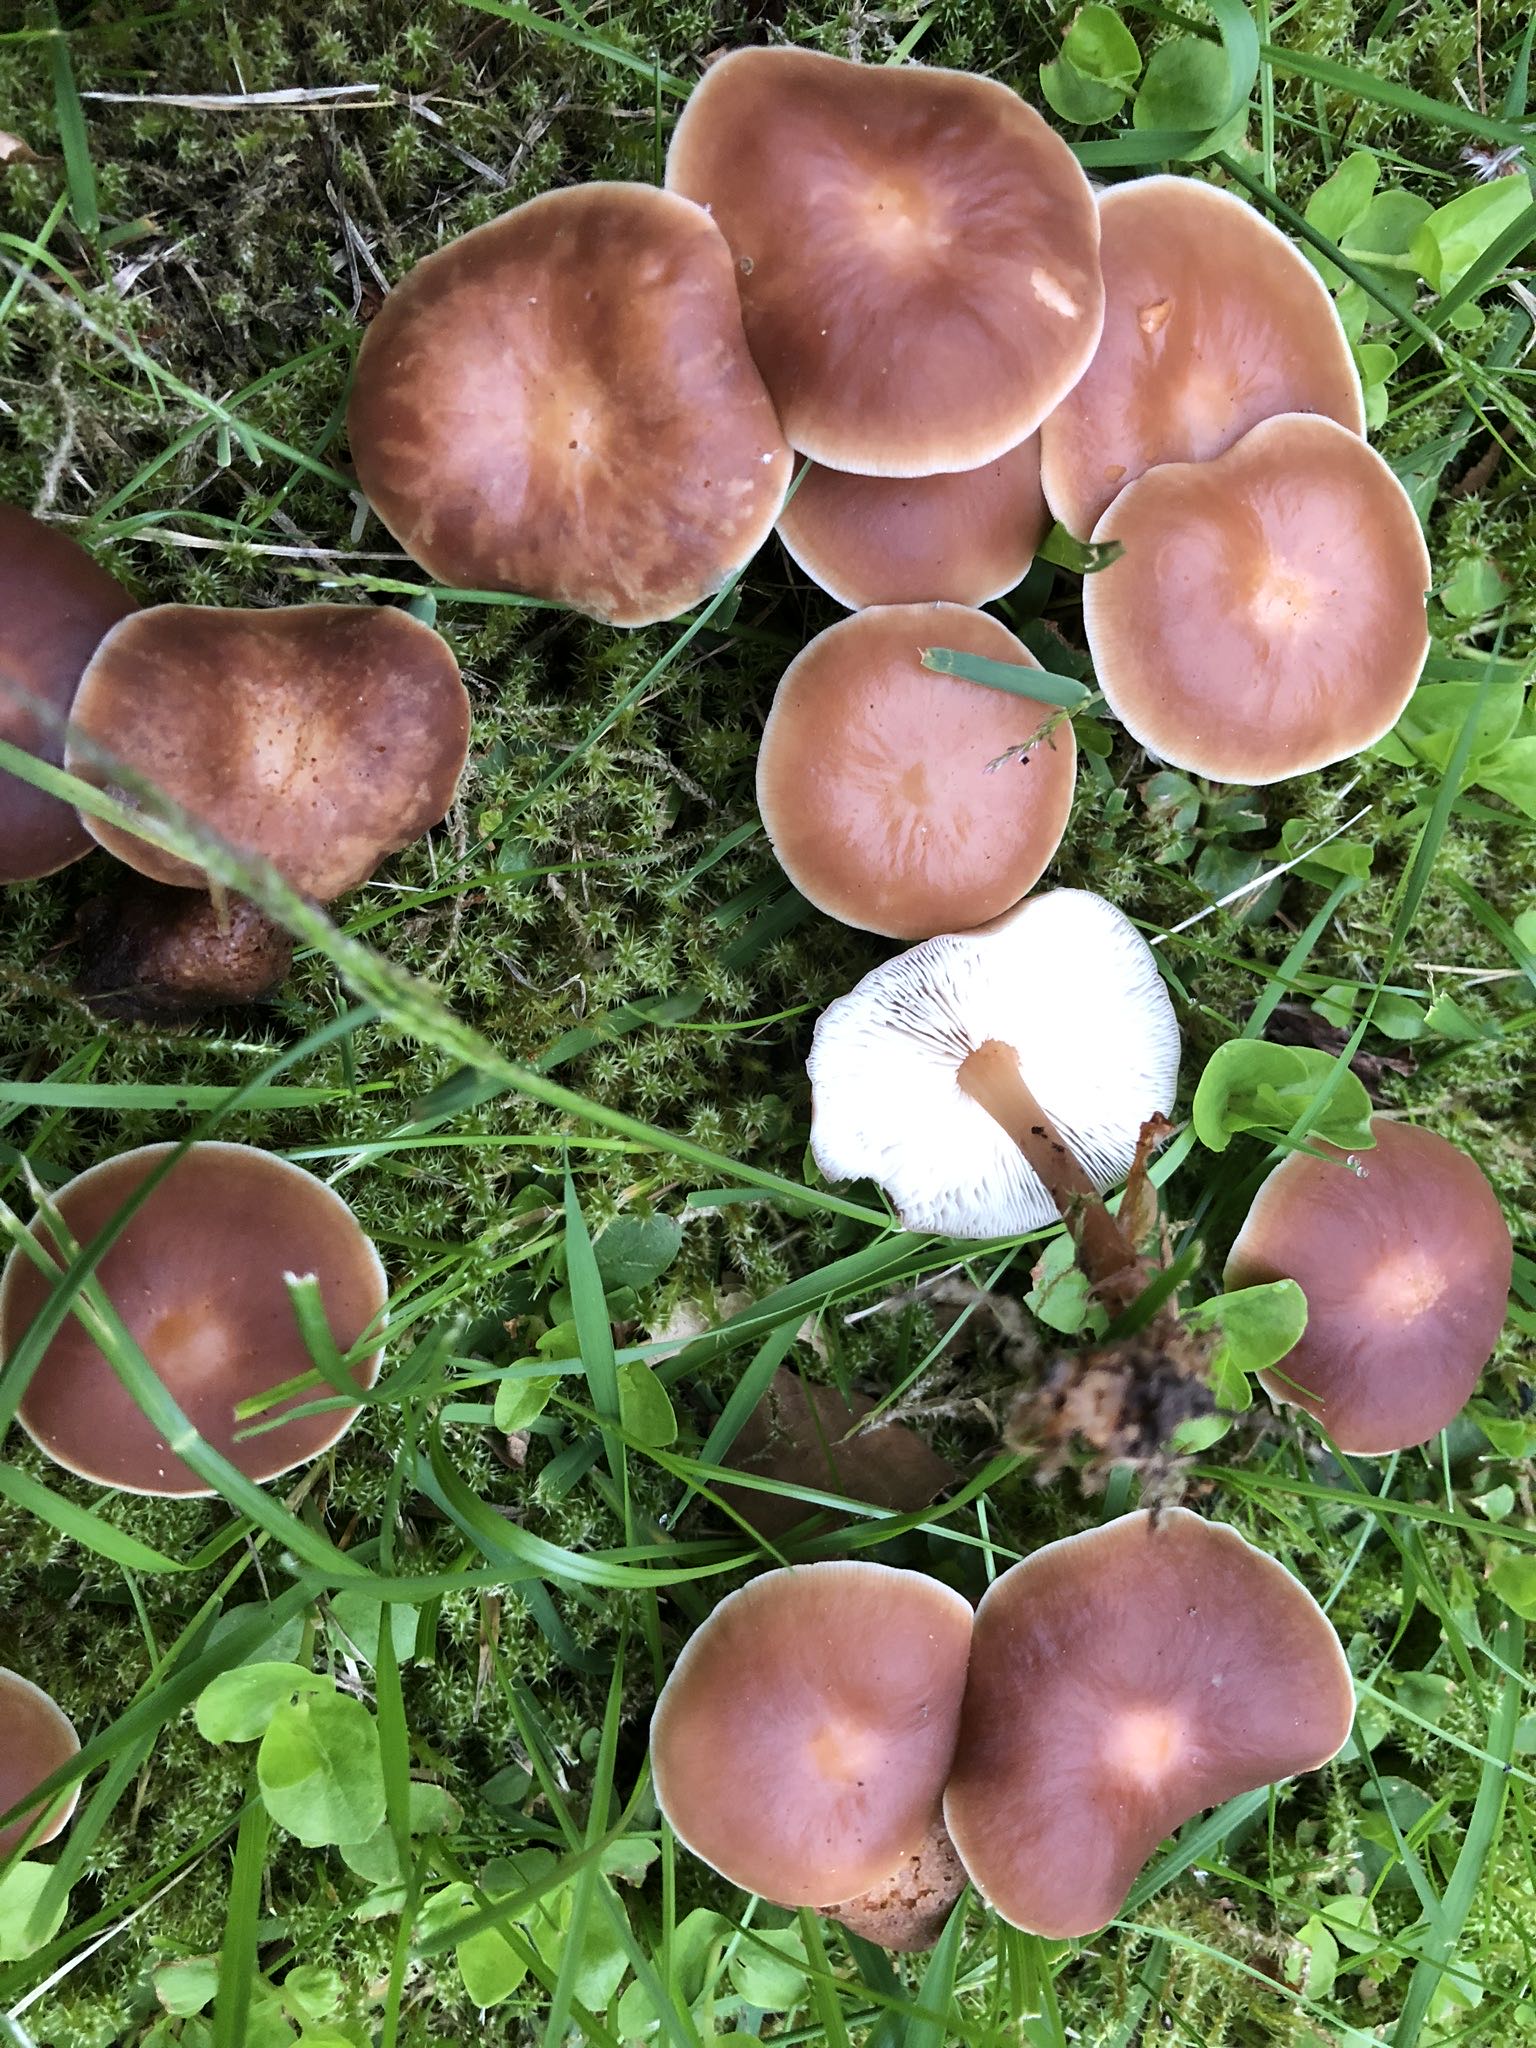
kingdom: Fungi
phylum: Basidiomycota
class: Agaricomycetes
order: Agaricales
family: Omphalotaceae
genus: Gymnopus
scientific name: Gymnopus ocior
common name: mørk fladhat
